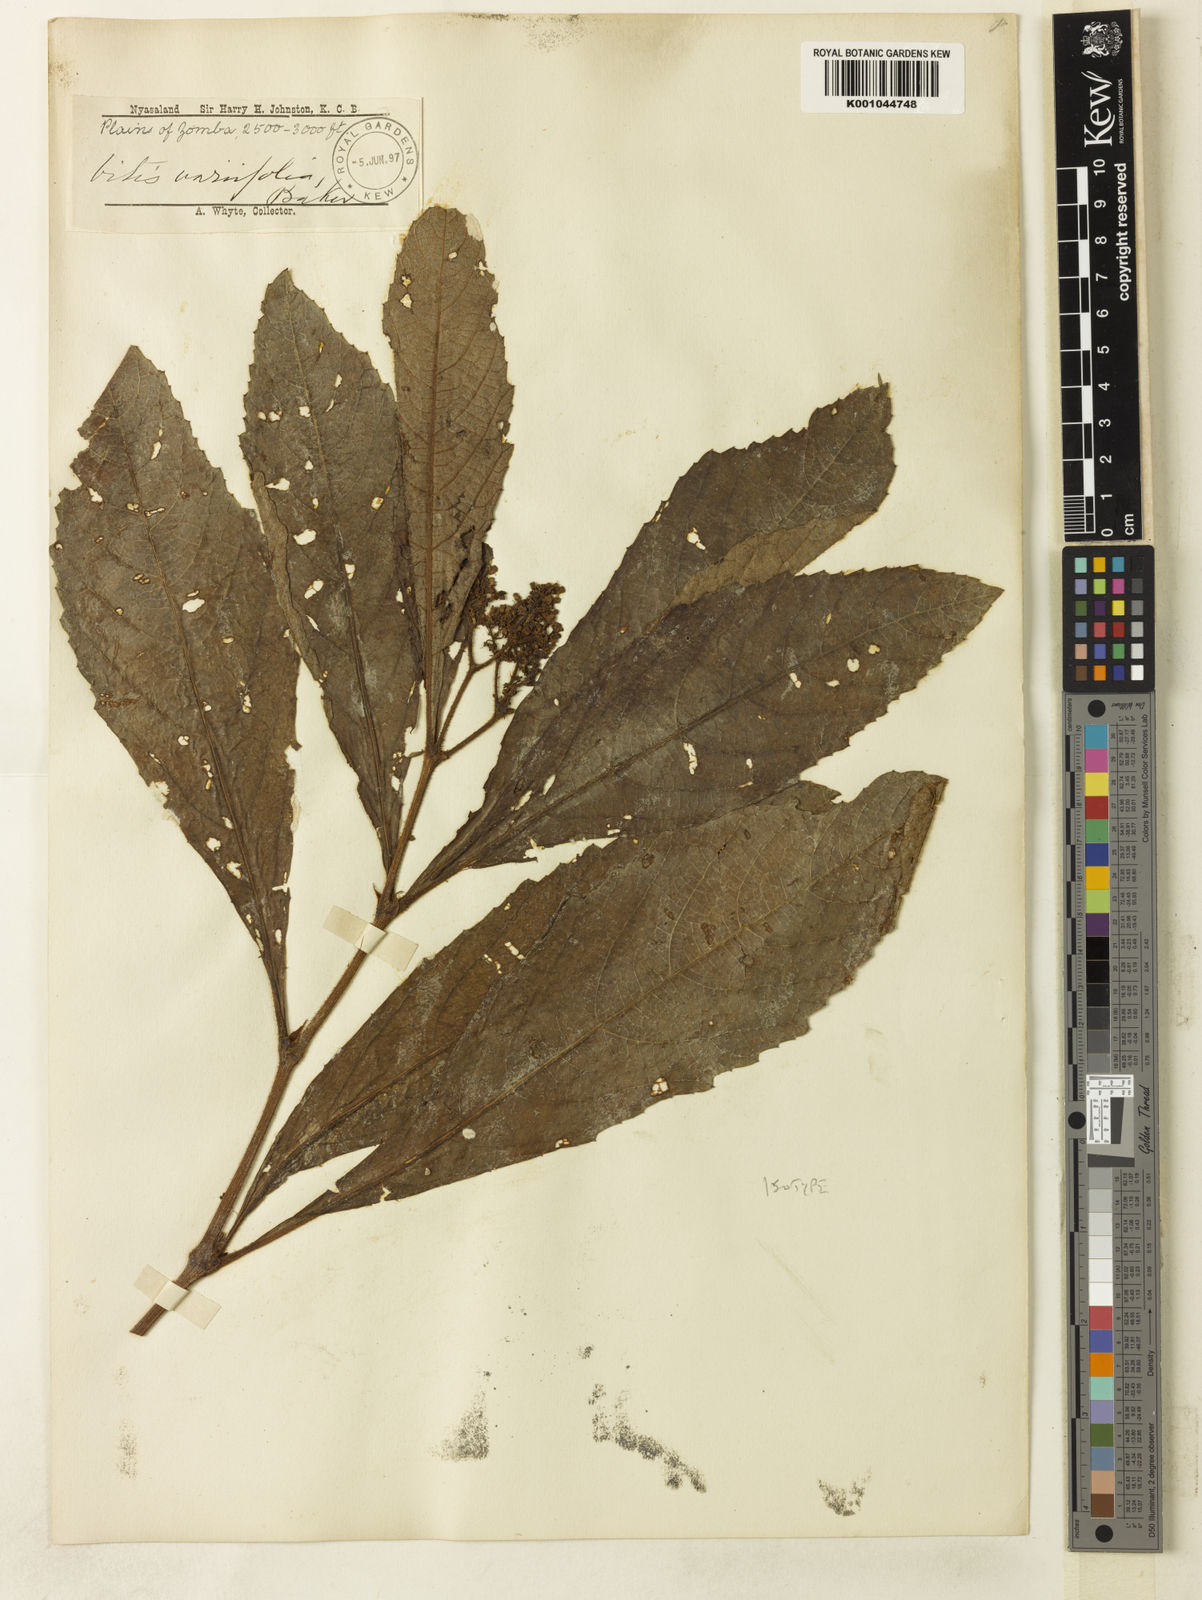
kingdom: Plantae
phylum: Tracheophyta
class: Magnoliopsida
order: Vitales
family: Vitaceae
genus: Cyphostemma
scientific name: Cyphostemma crotalarioides
